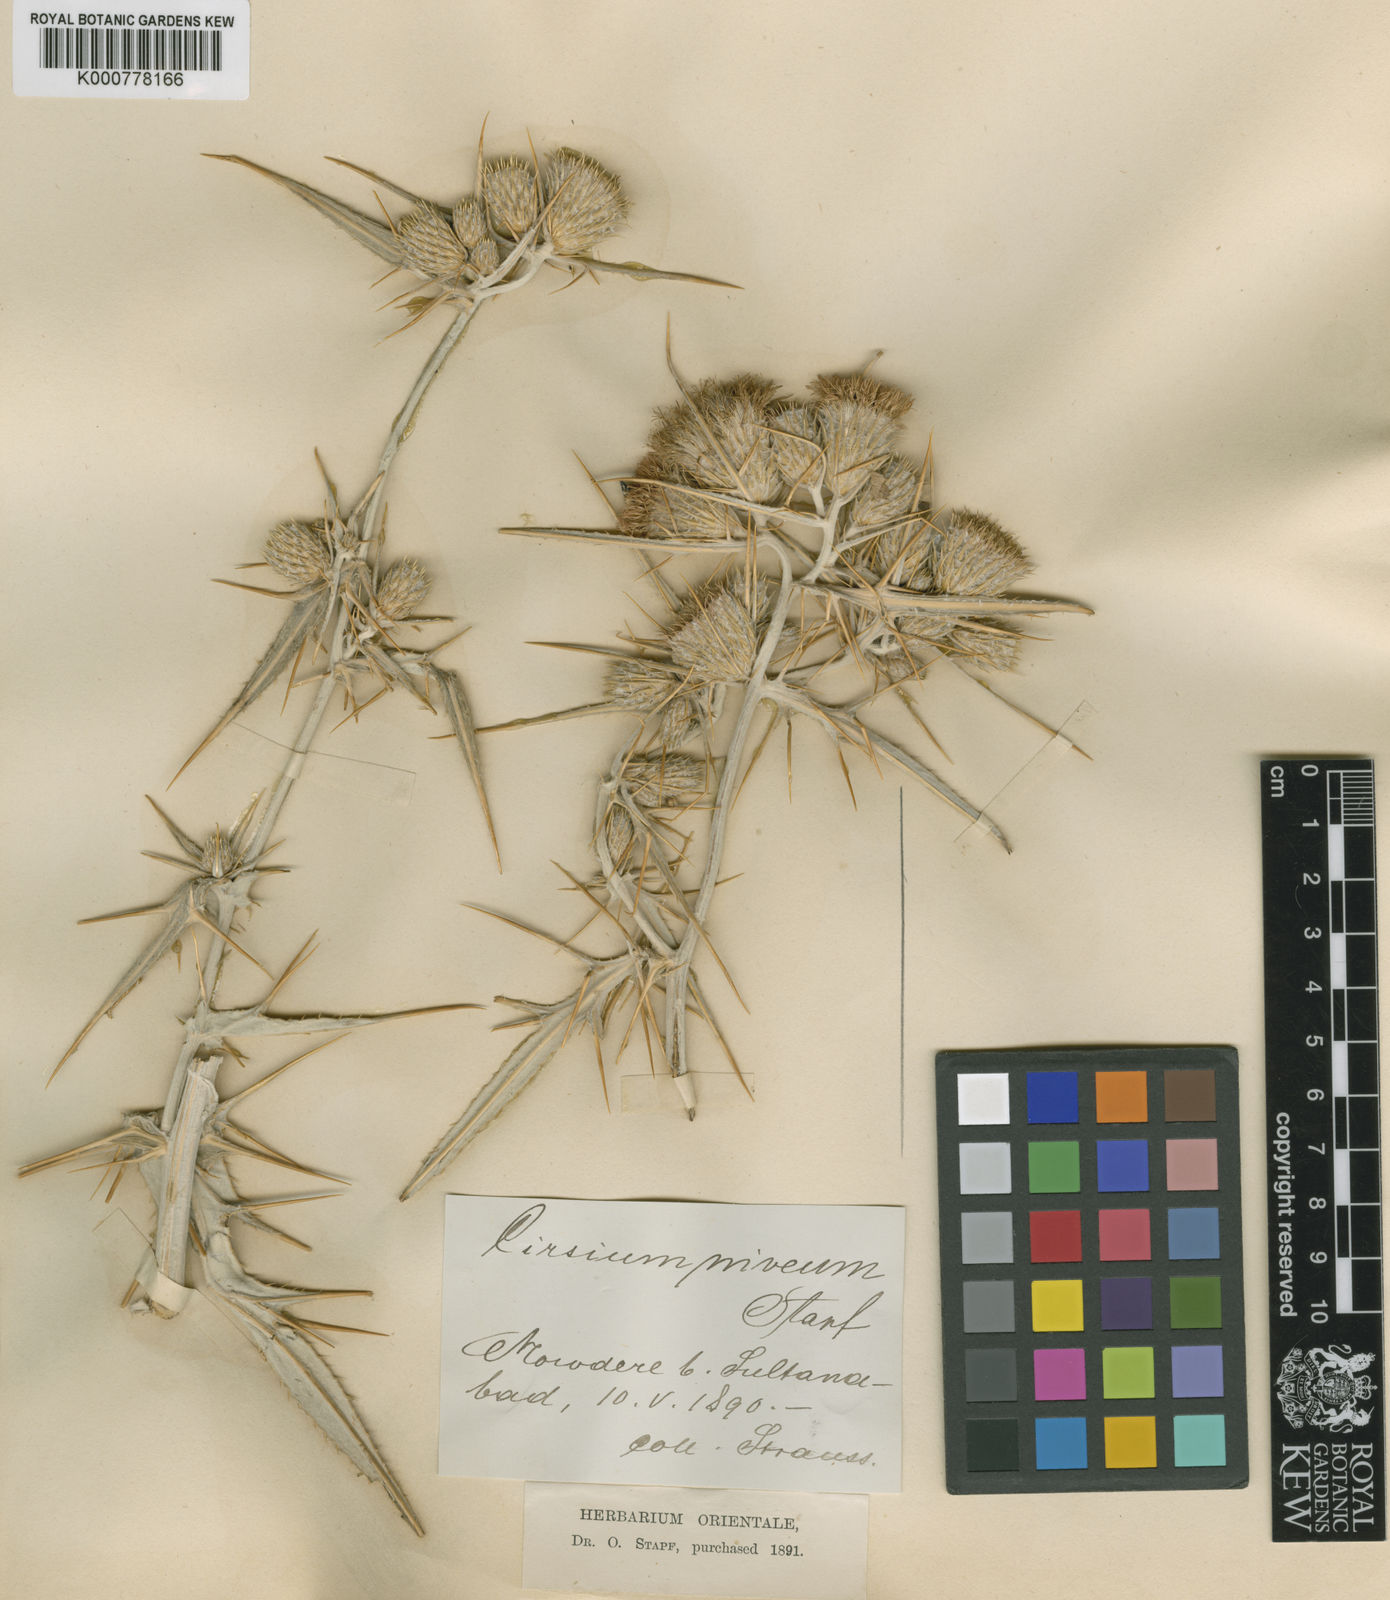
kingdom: Plantae
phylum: Tracheophyta
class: Magnoliopsida
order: Asterales
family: Asteraceae
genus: Cirsium
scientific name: Cirsium
